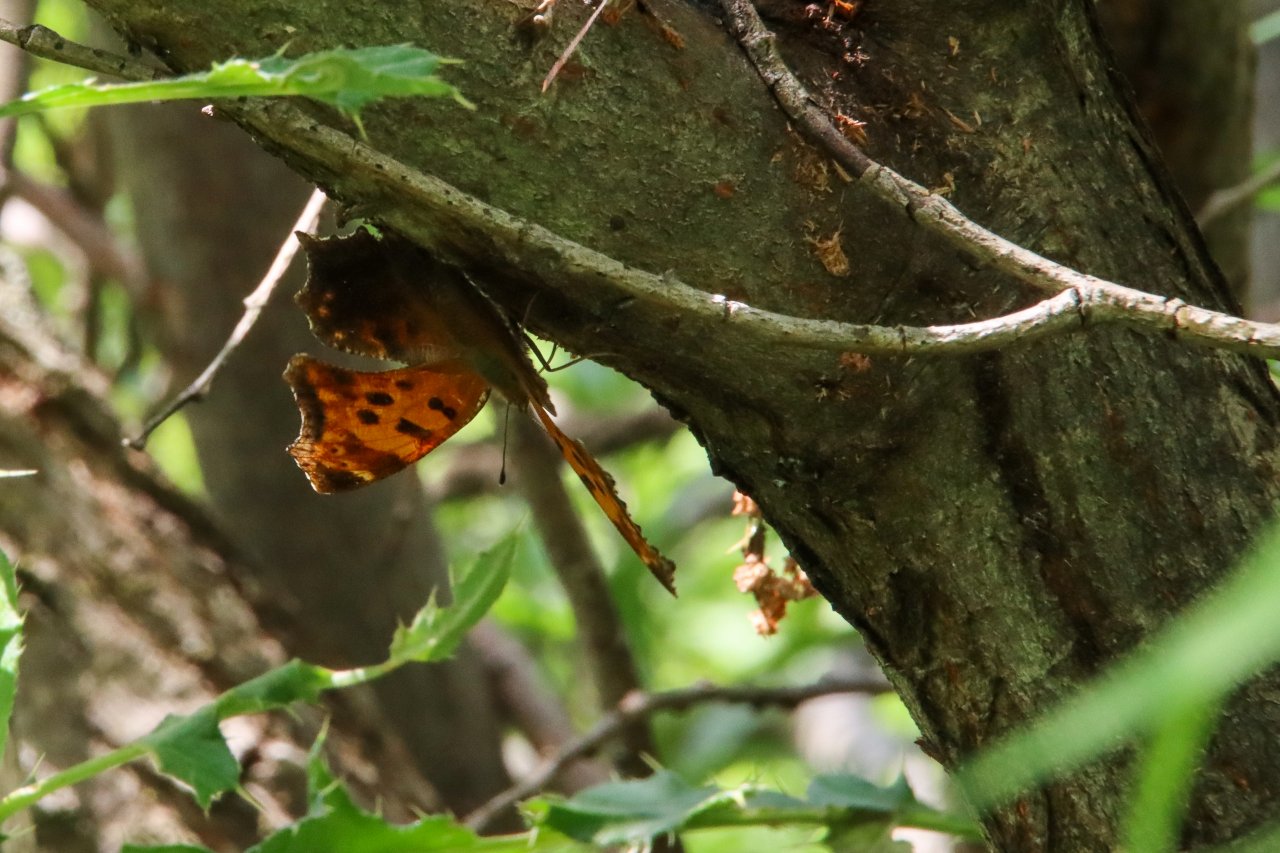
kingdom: Animalia
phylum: Arthropoda
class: Insecta
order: Lepidoptera
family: Nymphalidae
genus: Polygonia
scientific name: Polygonia comma
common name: Eastern Comma
